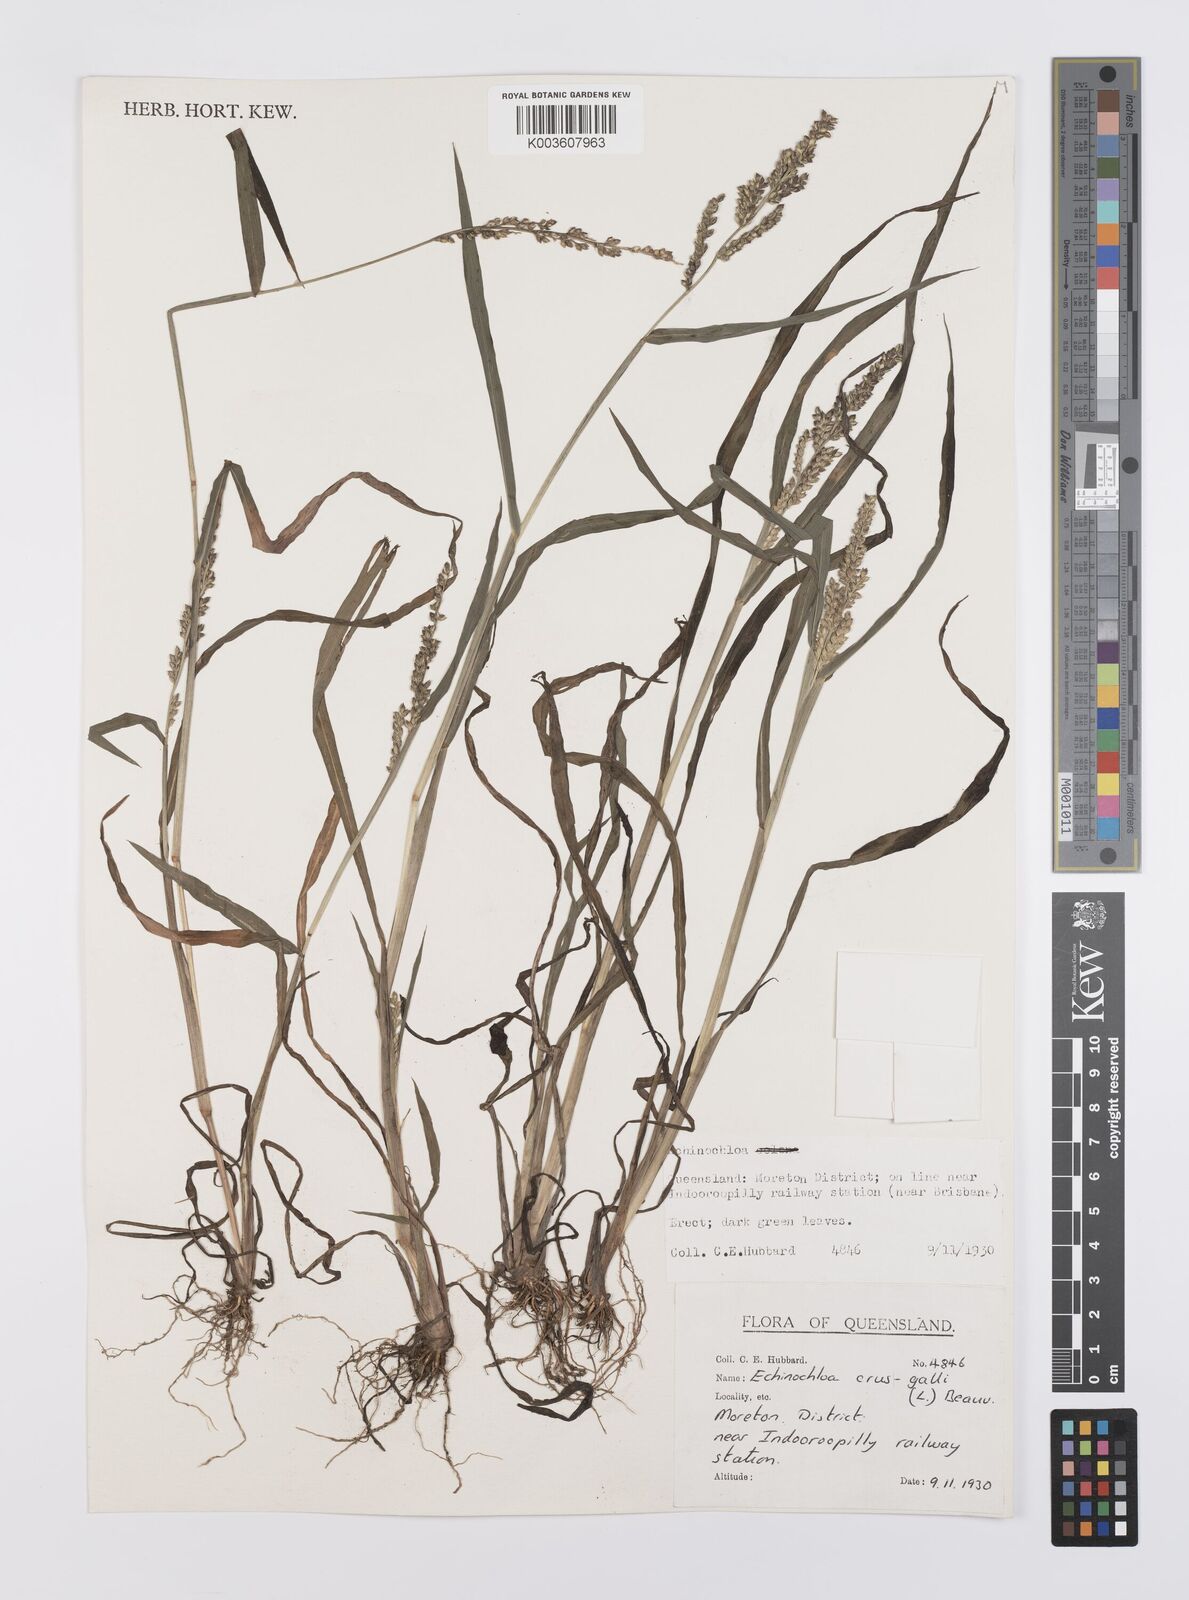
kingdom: Plantae
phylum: Tracheophyta
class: Liliopsida
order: Poales
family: Poaceae
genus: Echinochloa
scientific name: Echinochloa crus-galli
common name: Cockspur
